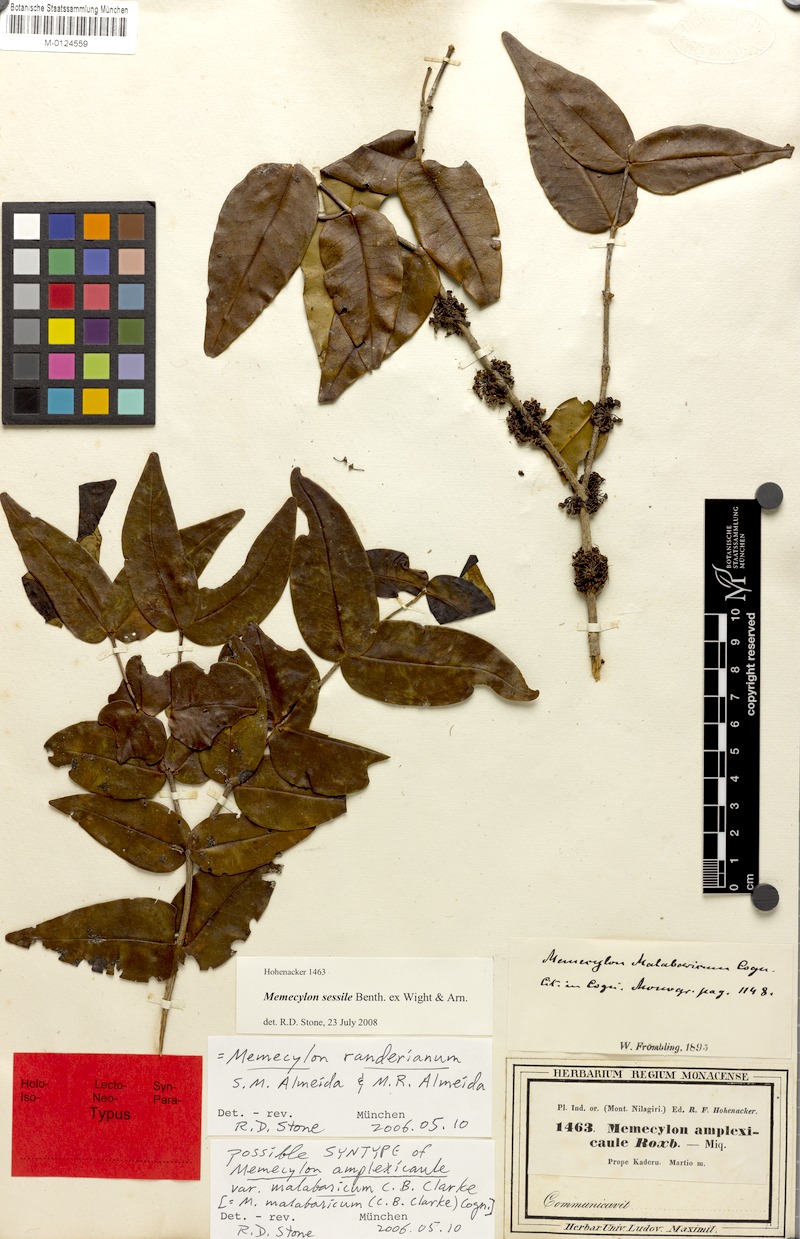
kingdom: Plantae
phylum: Tracheophyta
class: Magnoliopsida
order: Myrtales
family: Melastomataceae
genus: Memecylon
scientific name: Memecylon sessile
